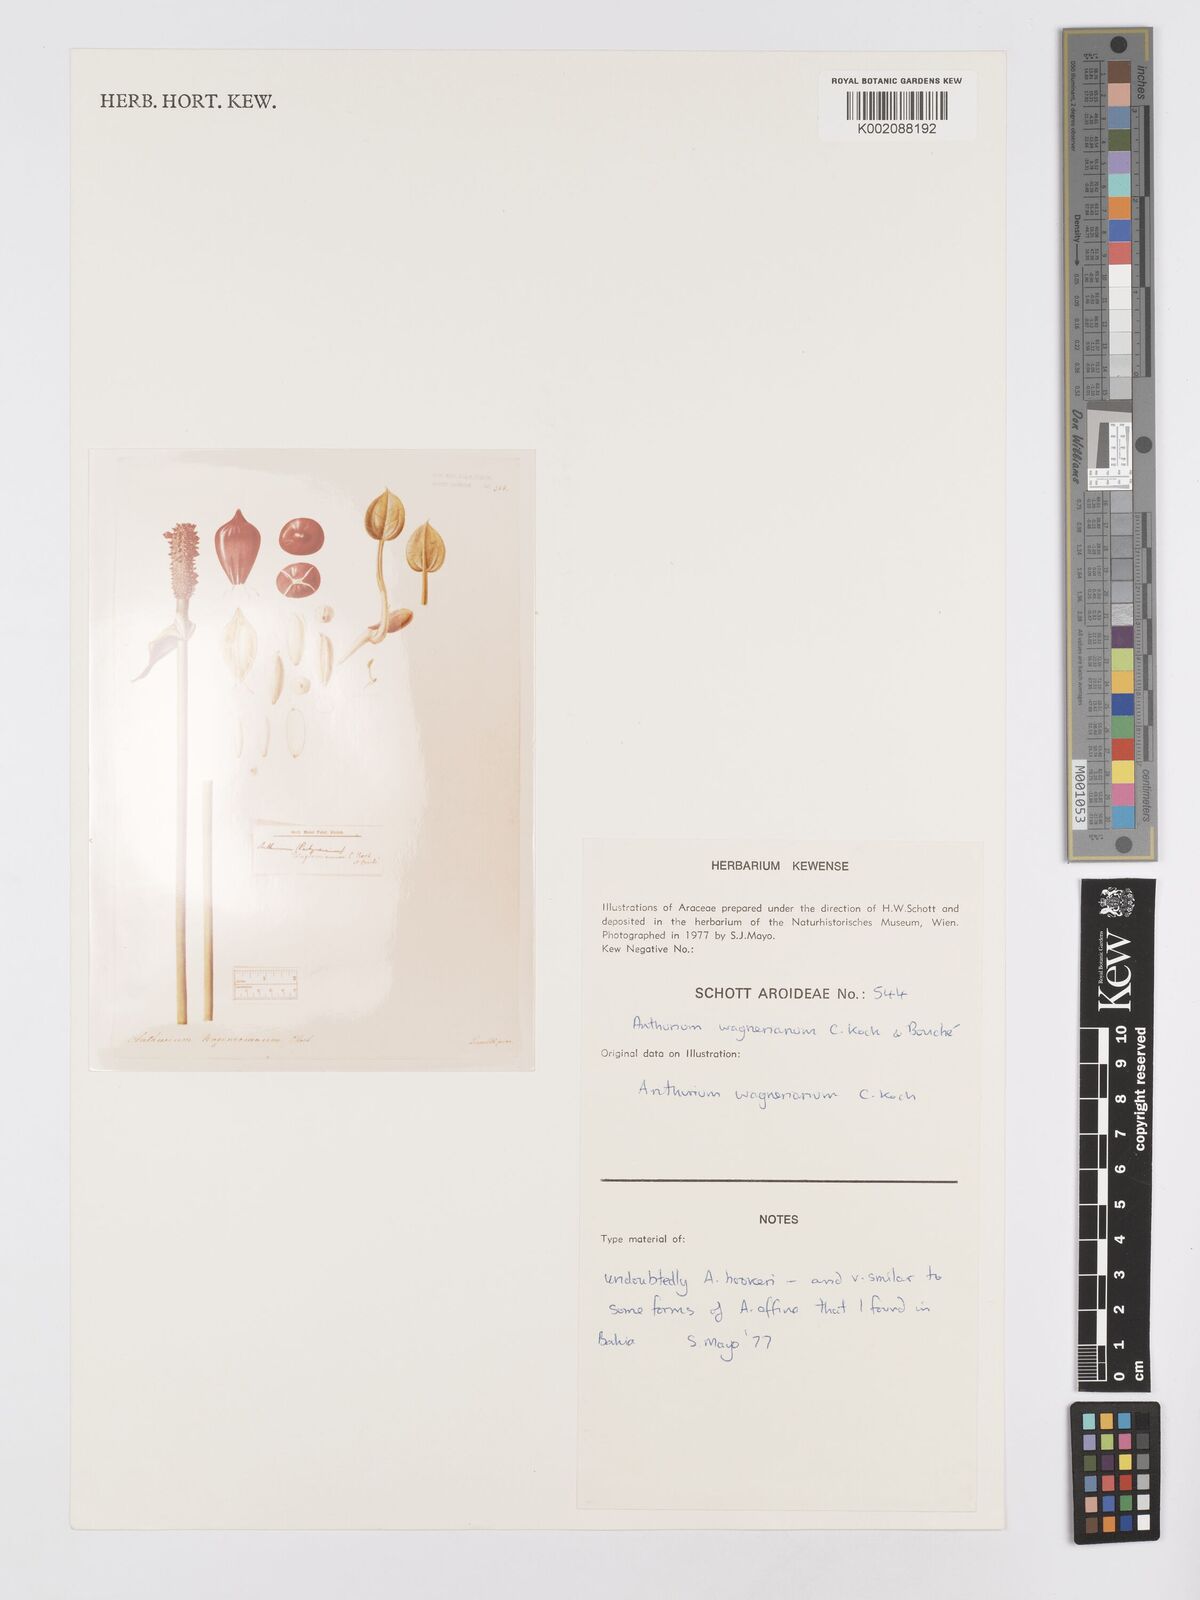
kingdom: Plantae
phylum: Tracheophyta
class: Liliopsida
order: Alismatales
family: Araceae
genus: Anthurium
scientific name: Anthurium wagenerianum
